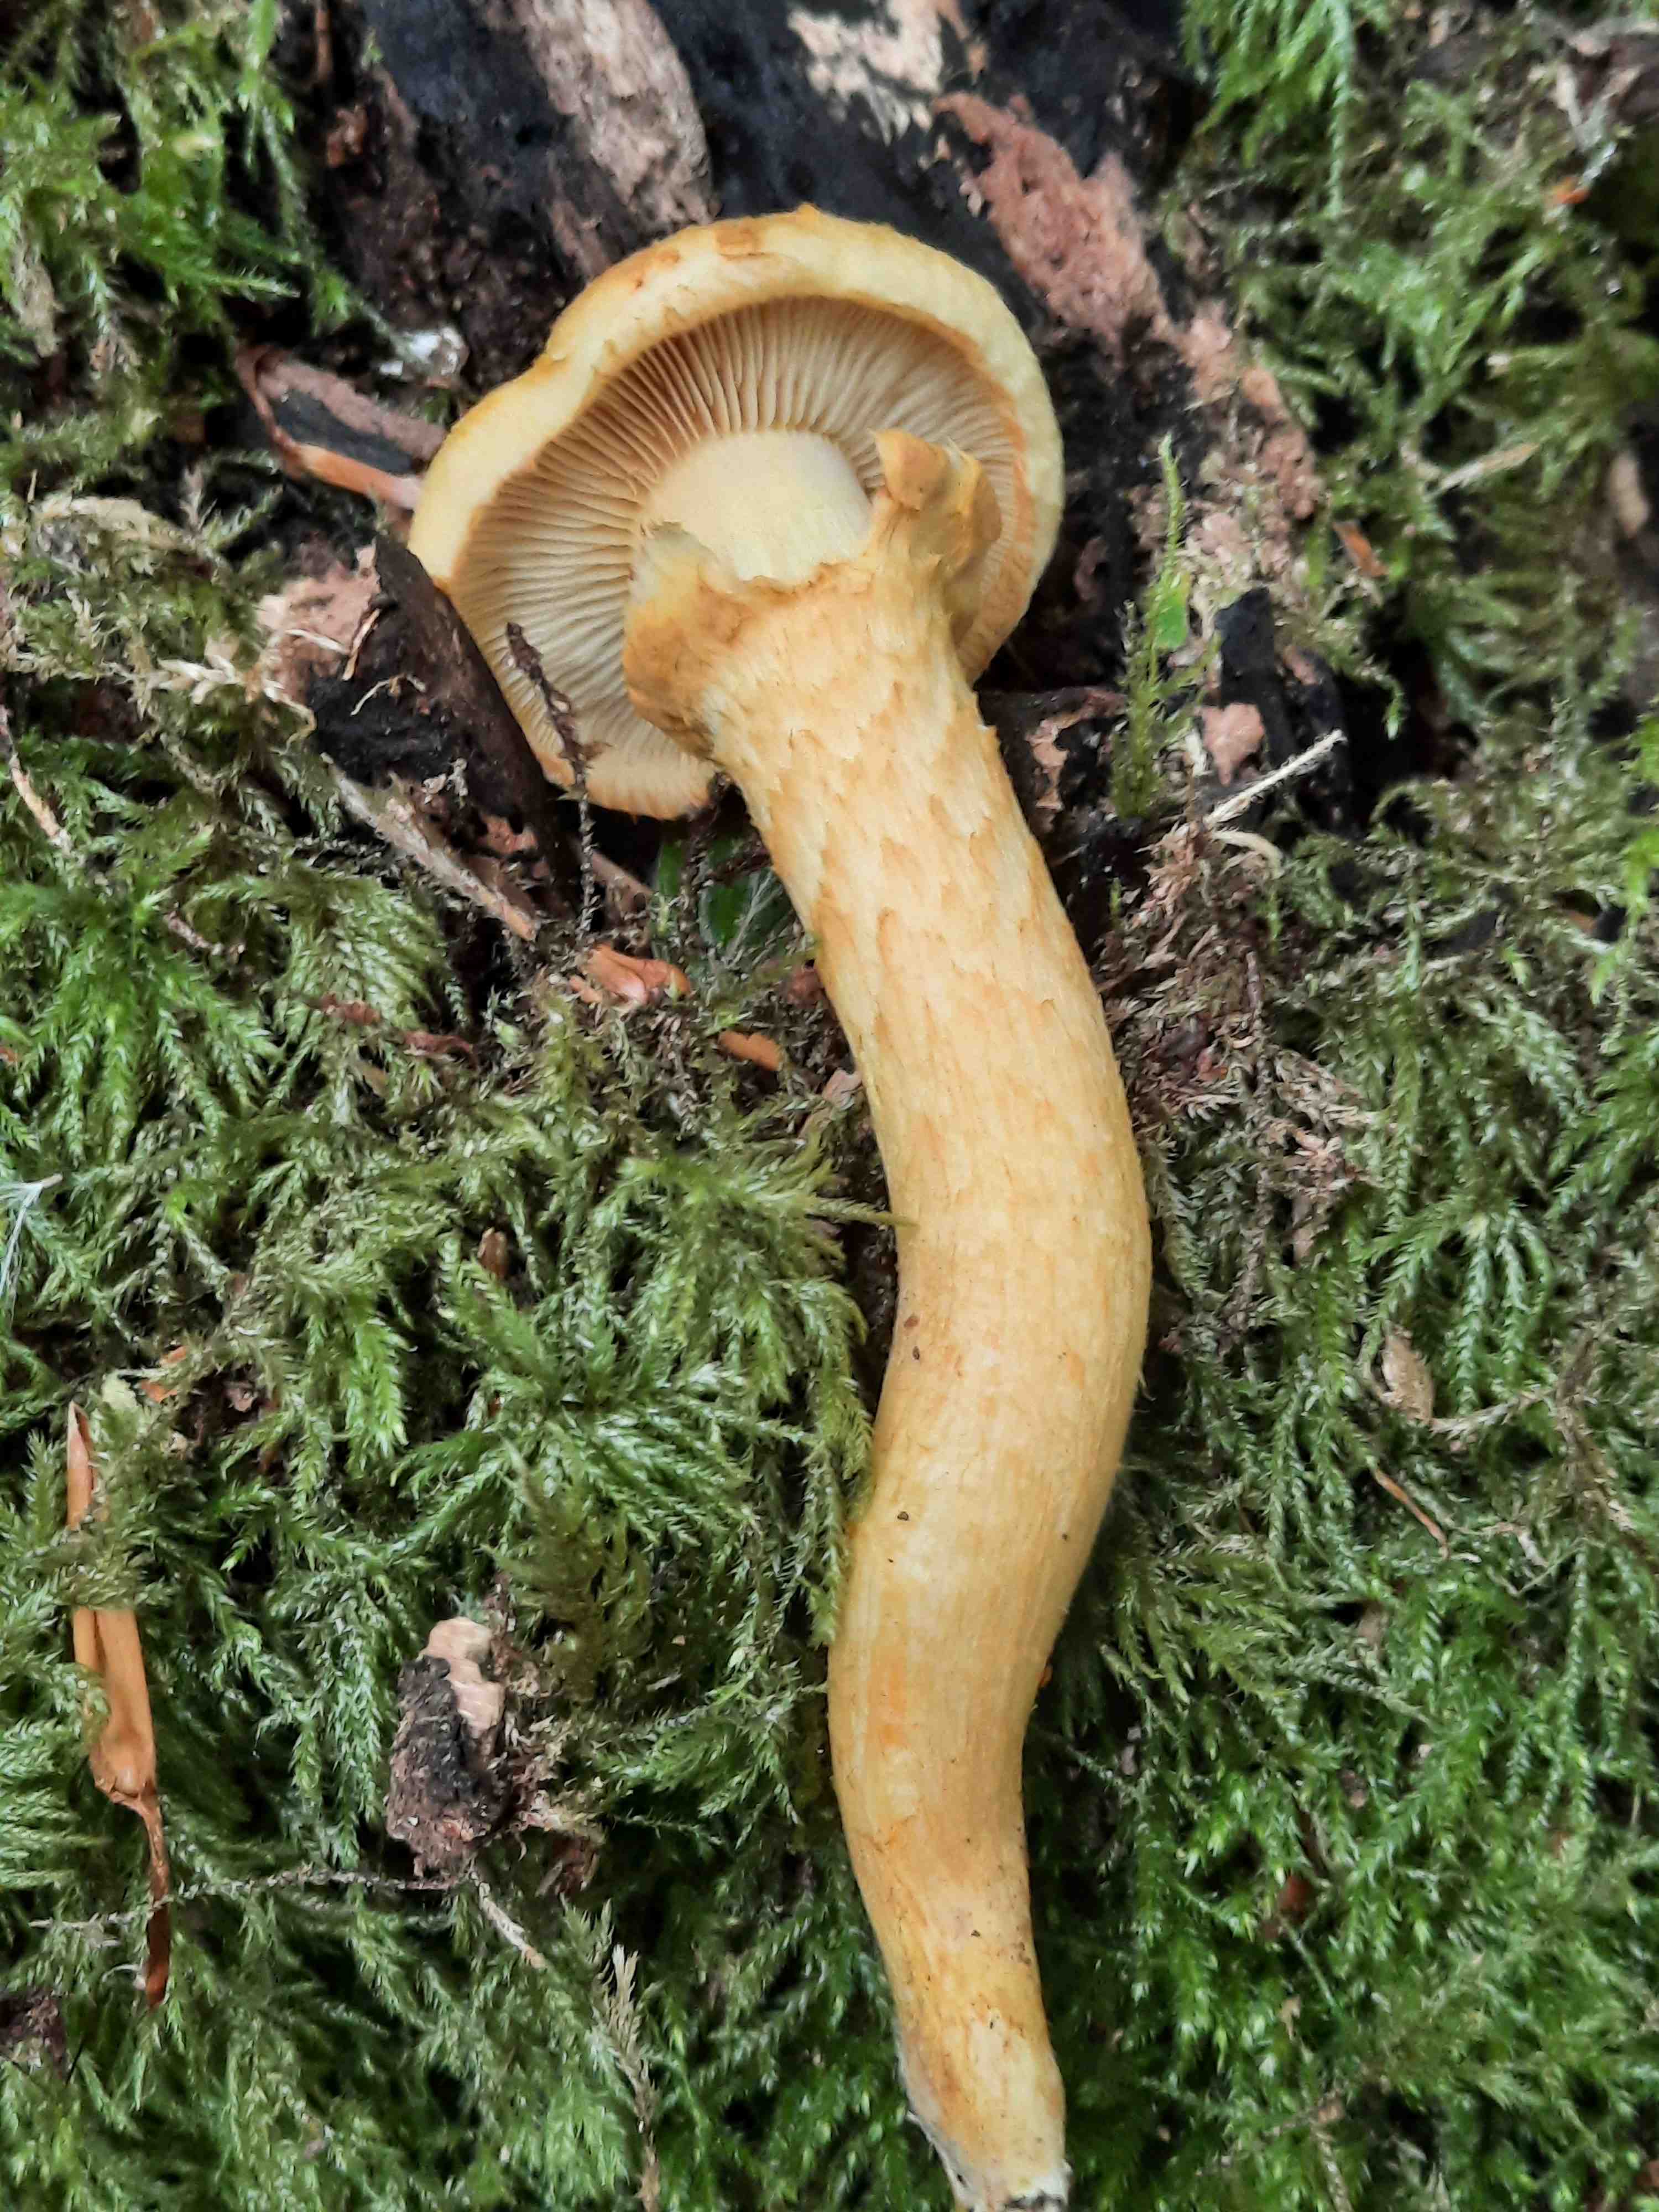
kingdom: Fungi
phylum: Basidiomycota
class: Agaricomycetes
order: Agaricales
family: Hymenogastraceae
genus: Gymnopilus
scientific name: Gymnopilus spectabilis
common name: fibret flammehat
